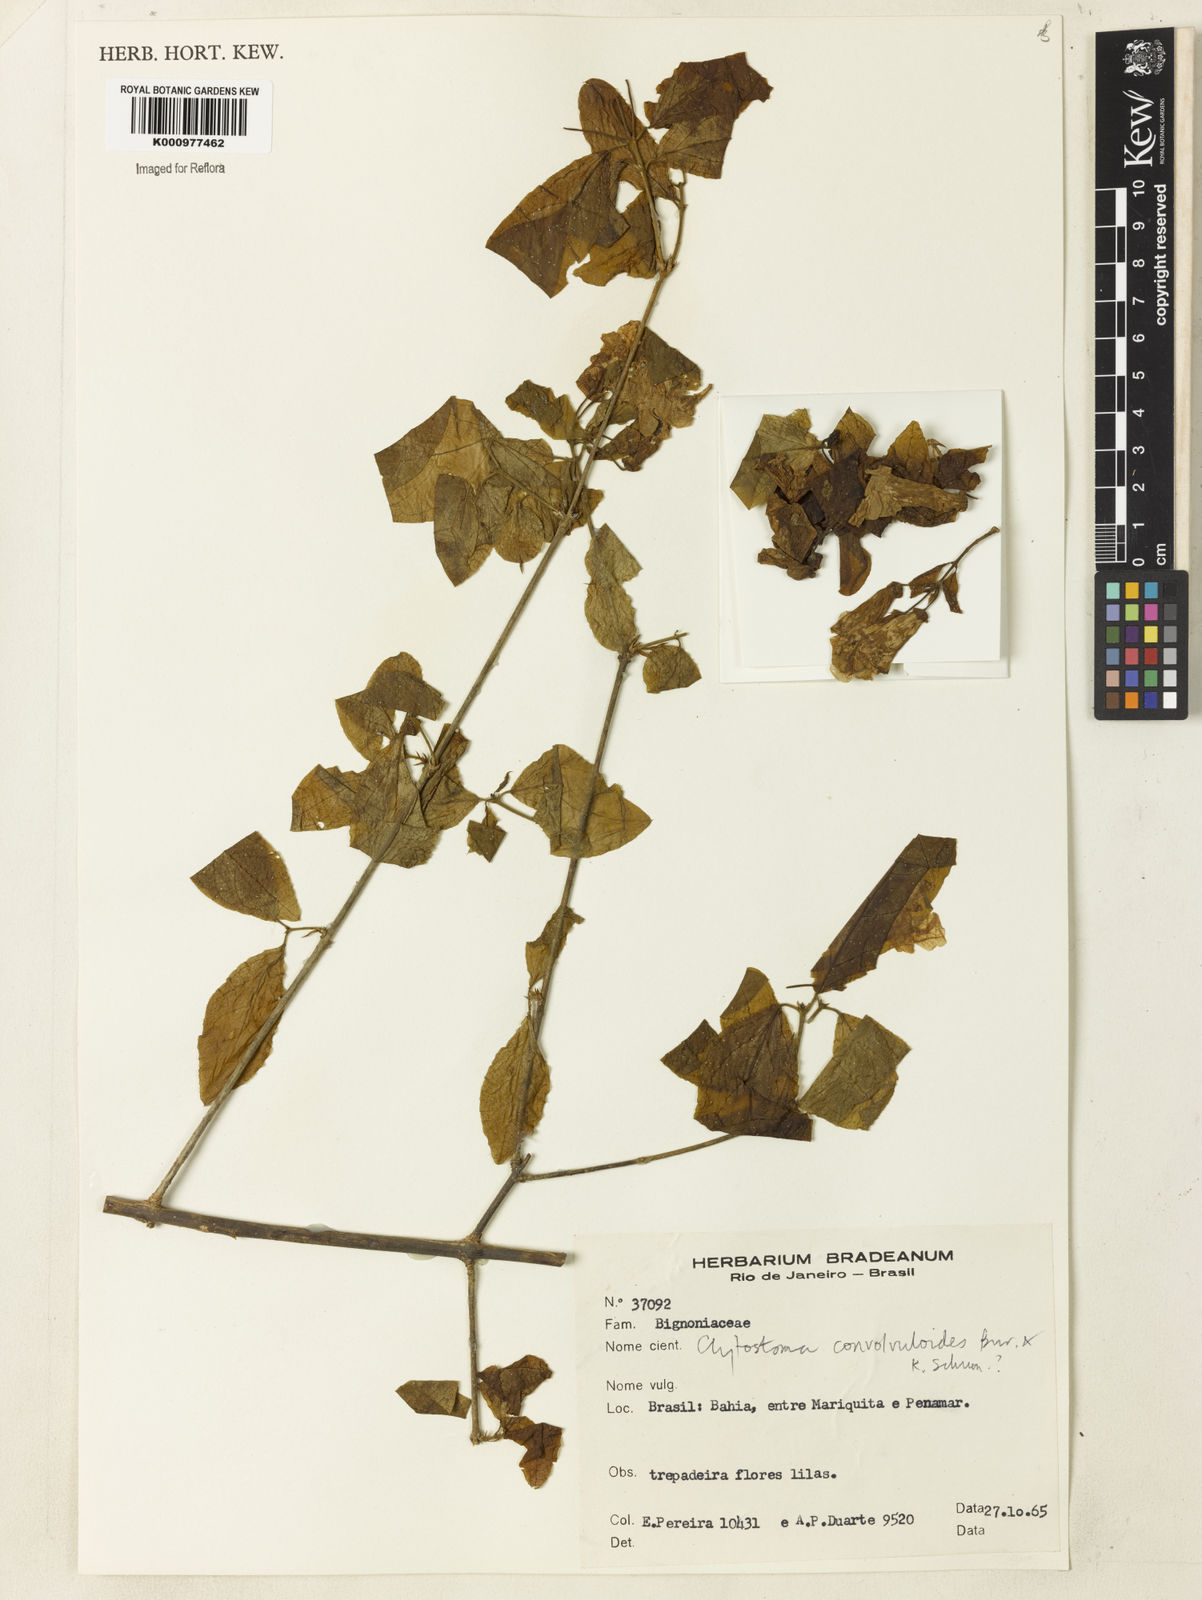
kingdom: Plantae
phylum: Tracheophyta
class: Magnoliopsida
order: Lamiales
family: Bignoniaceae
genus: Bignonia
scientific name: Bignonia convolvuloides
